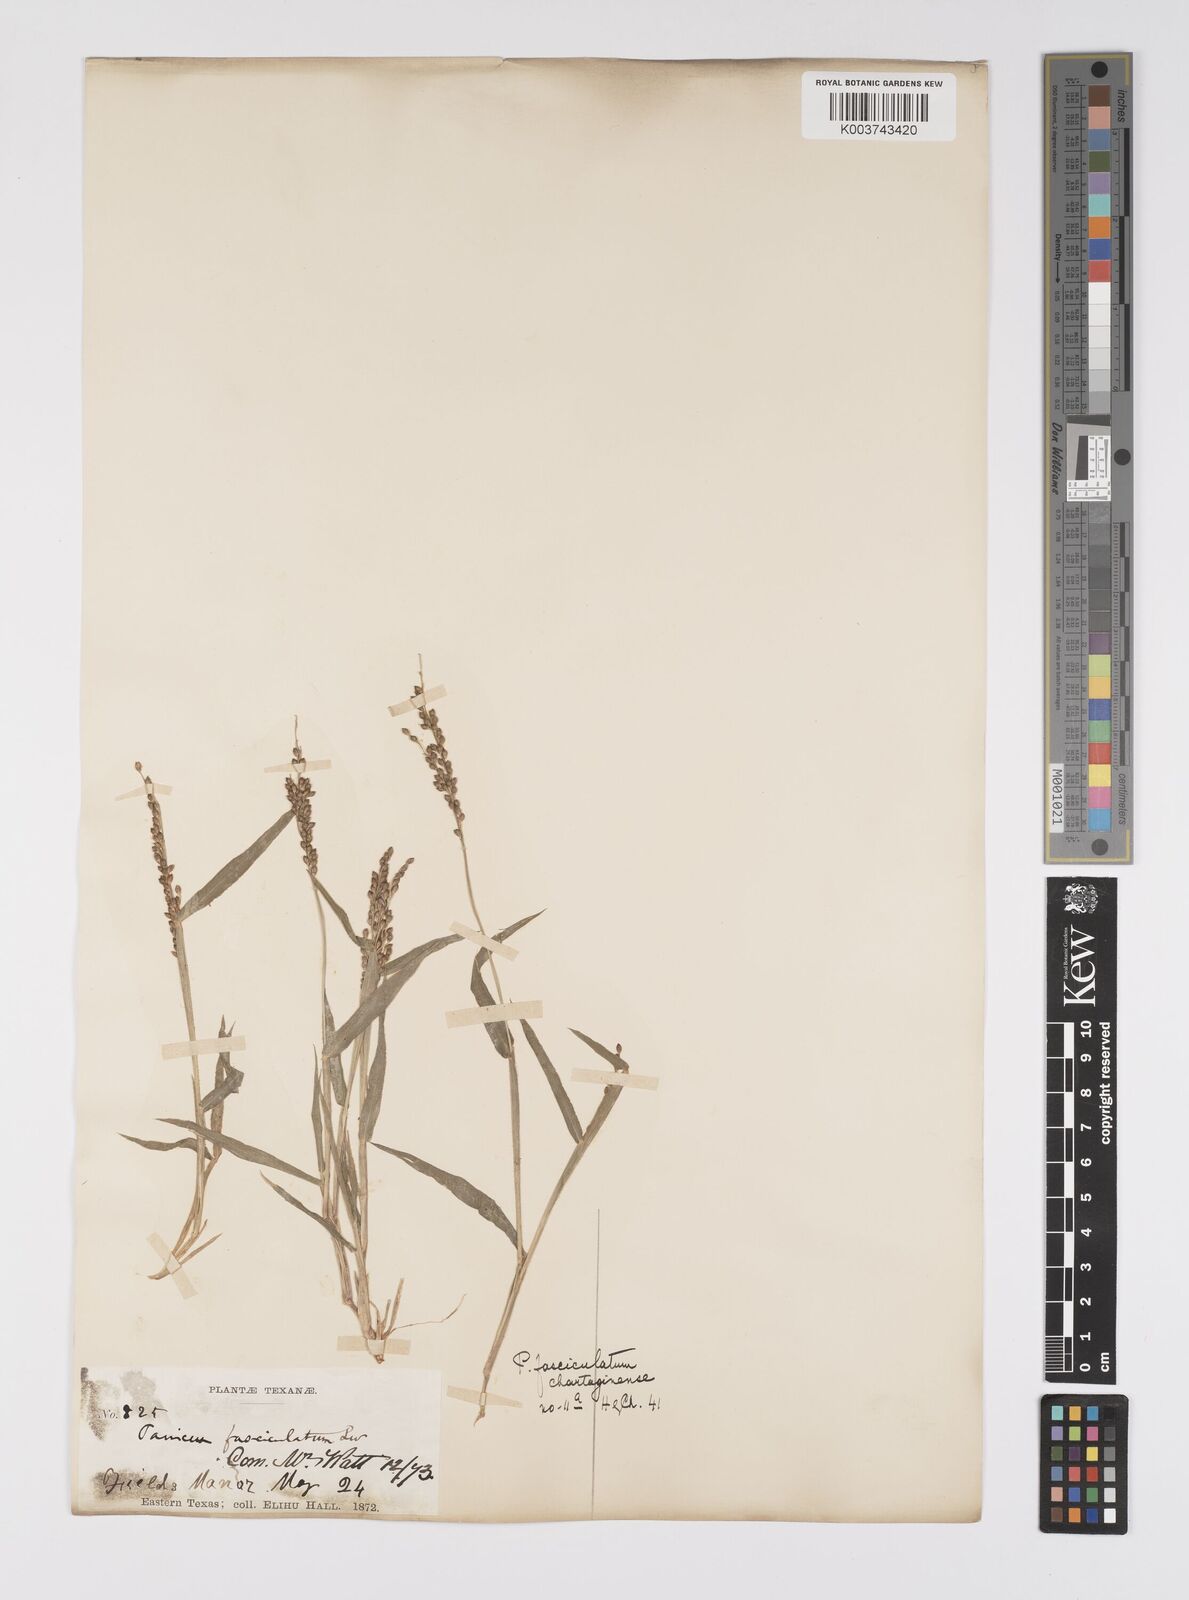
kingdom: Plantae
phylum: Tracheophyta
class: Liliopsida
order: Poales
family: Poaceae
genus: Urochloa
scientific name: Urochloa fusca
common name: Browntop signal grass
